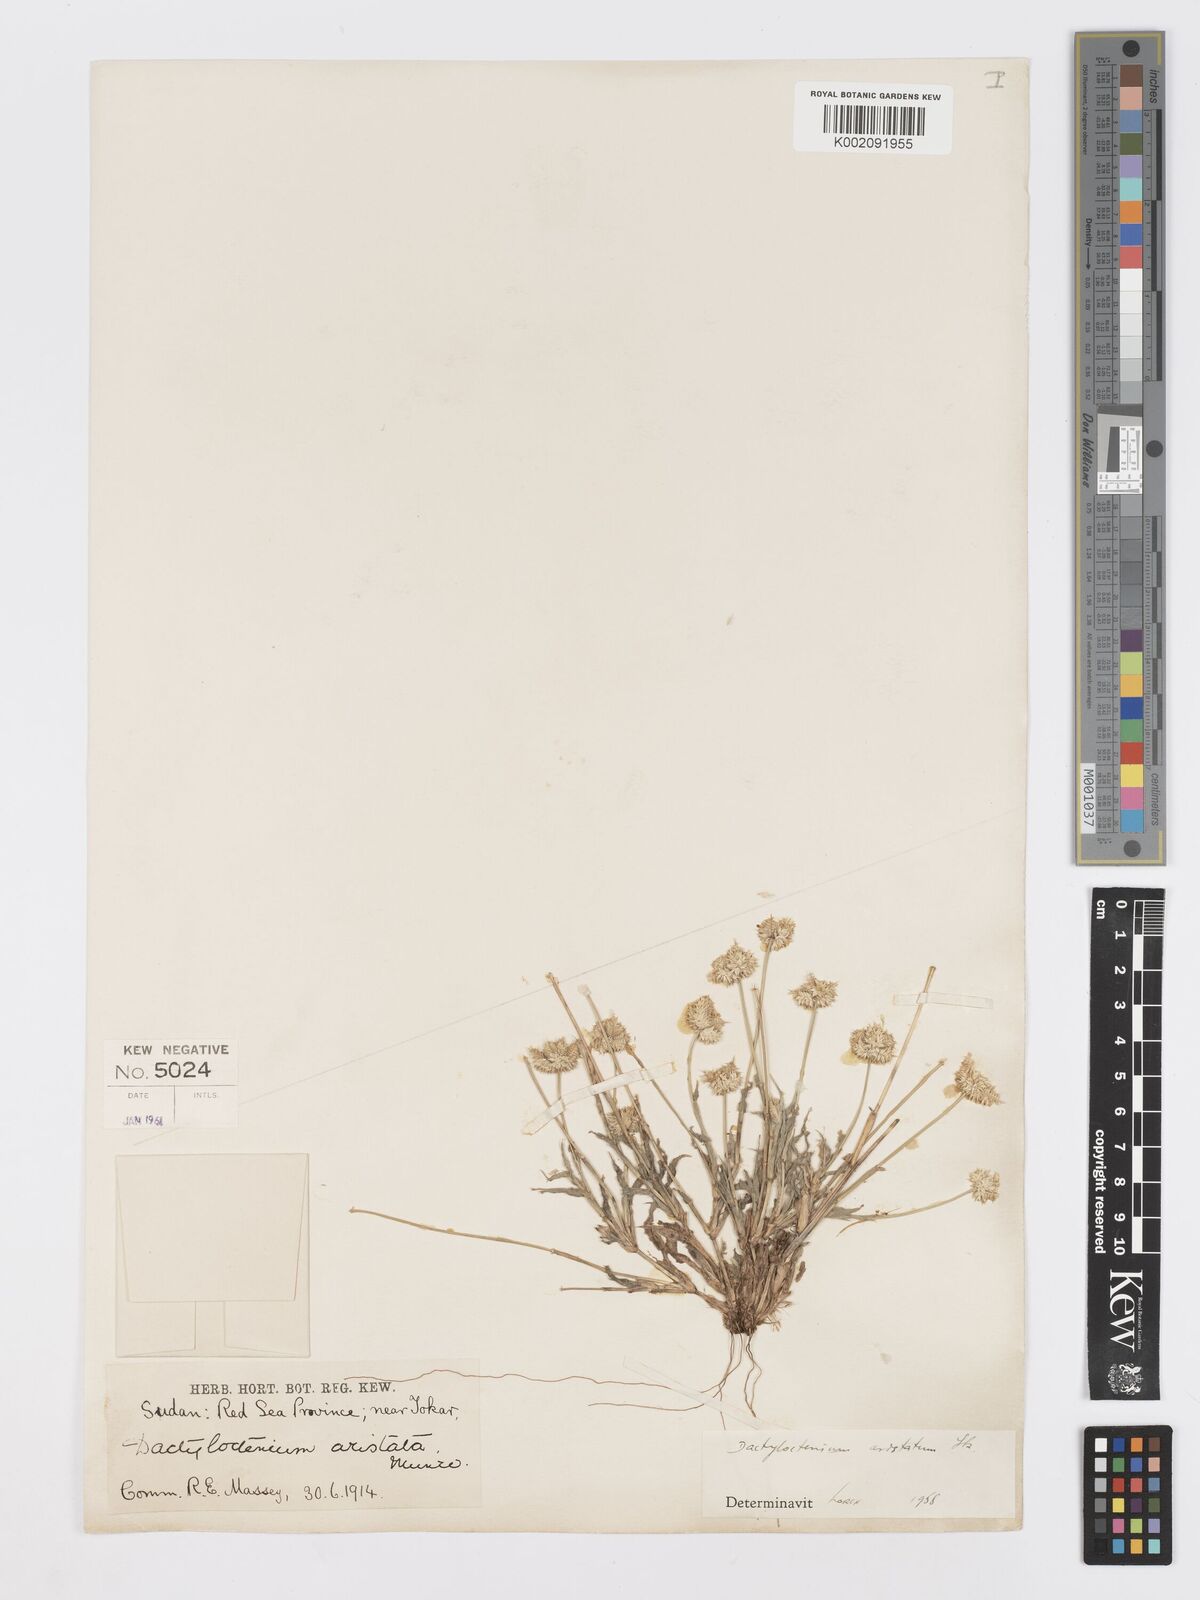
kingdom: Plantae
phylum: Tracheophyta
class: Liliopsida
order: Poales
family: Poaceae
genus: Dactyloctenium
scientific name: Dactyloctenium aristatum
